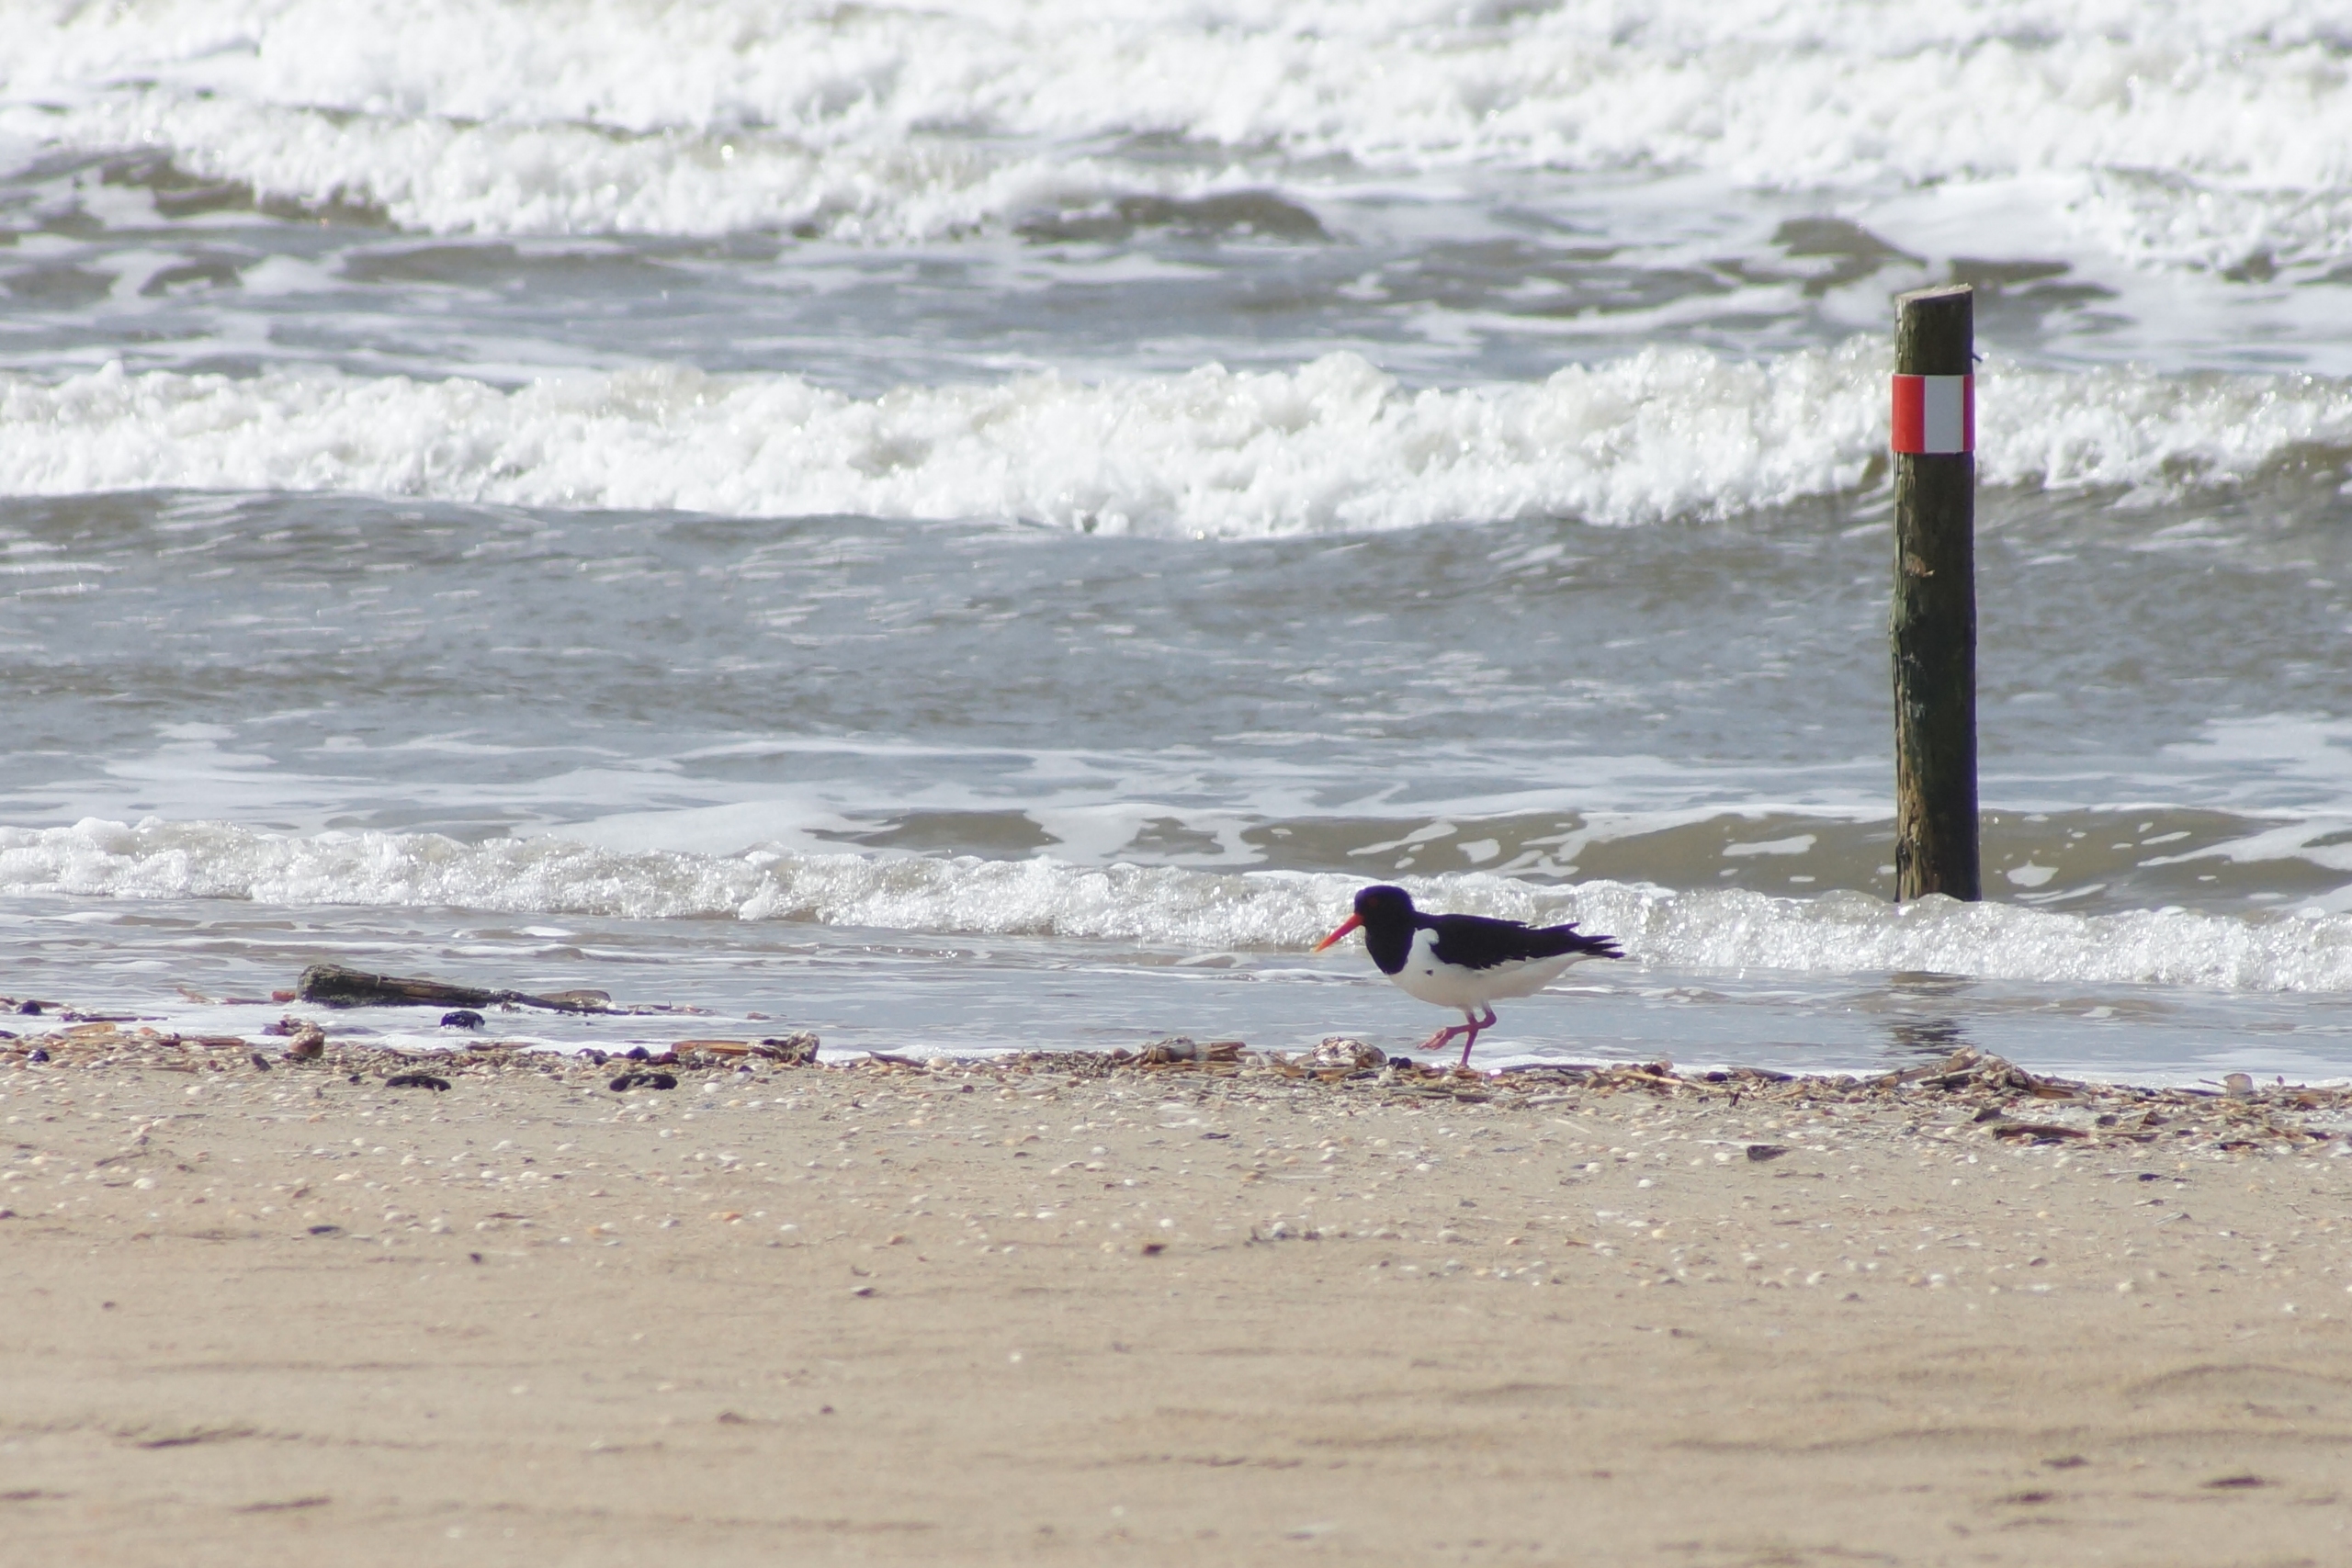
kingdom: Animalia
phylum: Chordata
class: Aves
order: Charadriiformes
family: Haematopodidae
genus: Haematopus
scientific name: Haematopus ostralegus
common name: Strandskade
